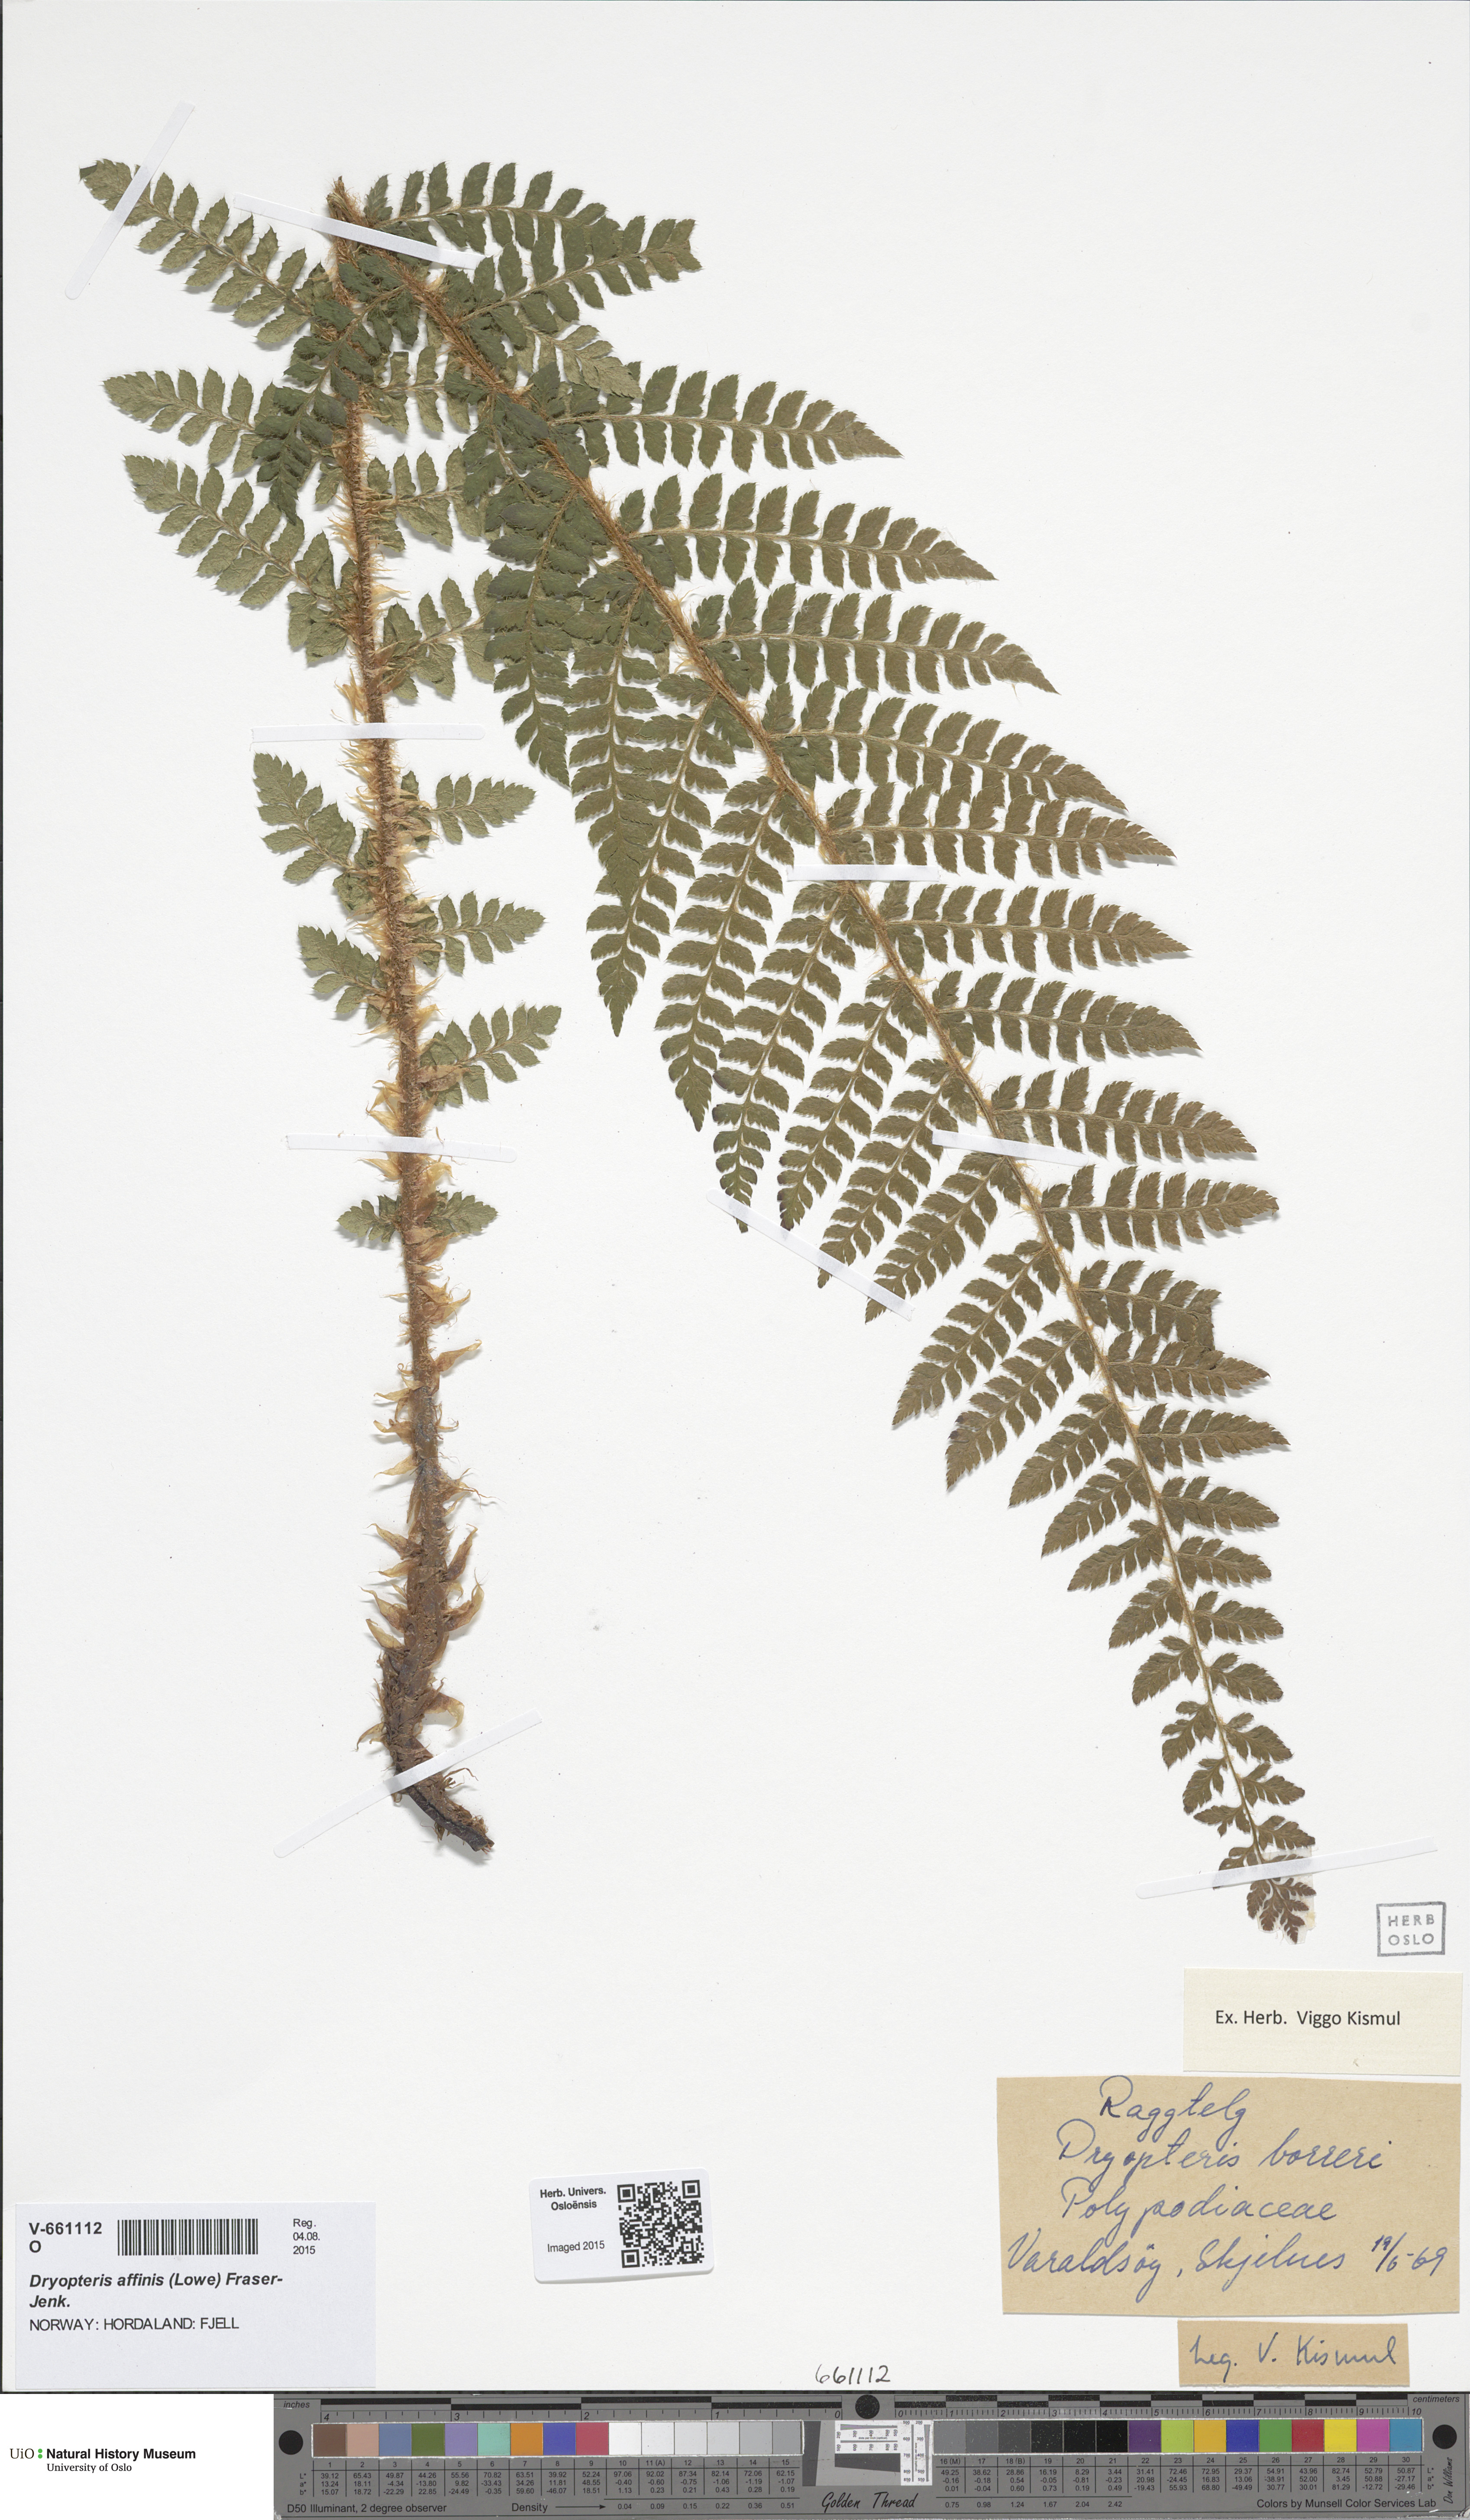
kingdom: Plantae
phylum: Tracheophyta
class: Polypodiopsida
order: Polypodiales
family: Dryopteridaceae
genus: Polystichum
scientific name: Polystichum braunii
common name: Braun's holly fern
